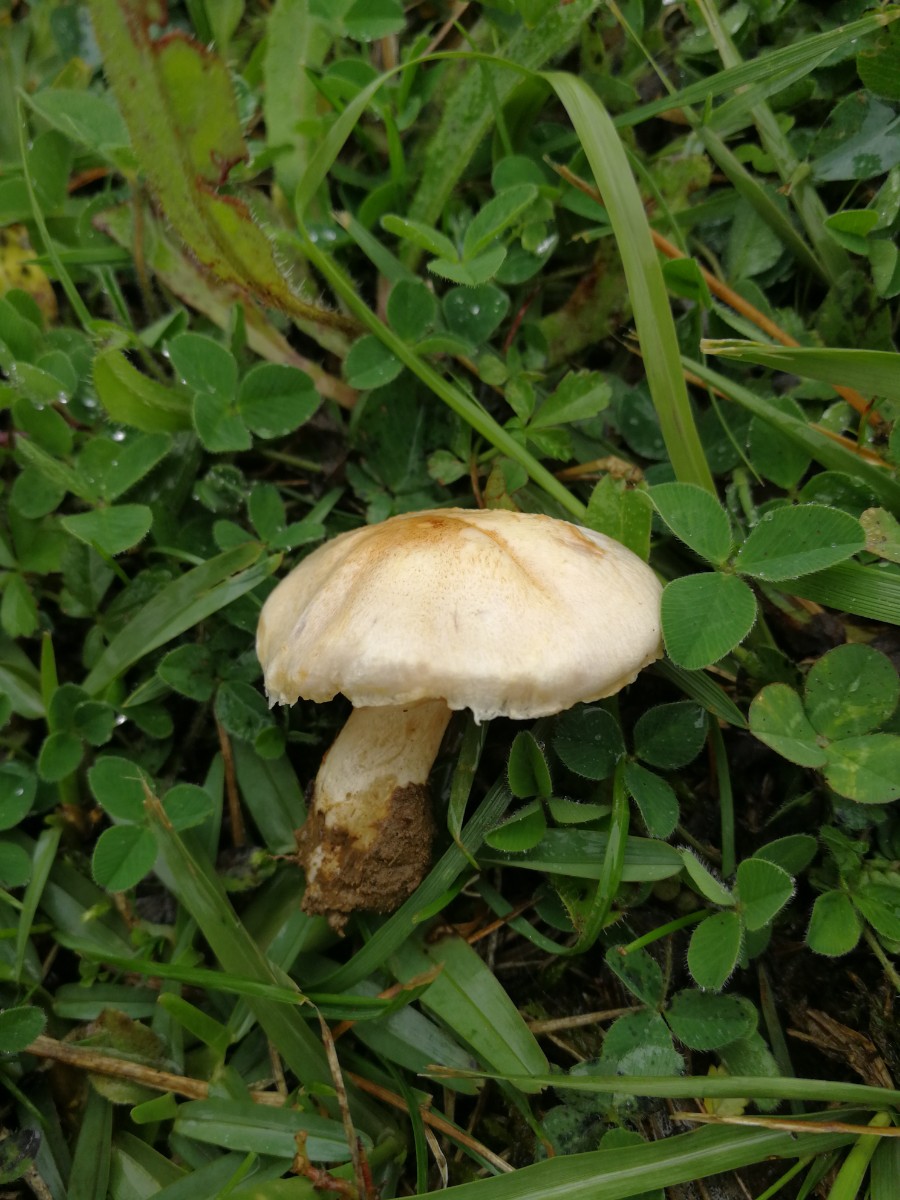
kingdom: Fungi
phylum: Basidiomycota
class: Agaricomycetes
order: Agaricales
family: Agaricaceae
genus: Agaricus
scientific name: Agaricus
